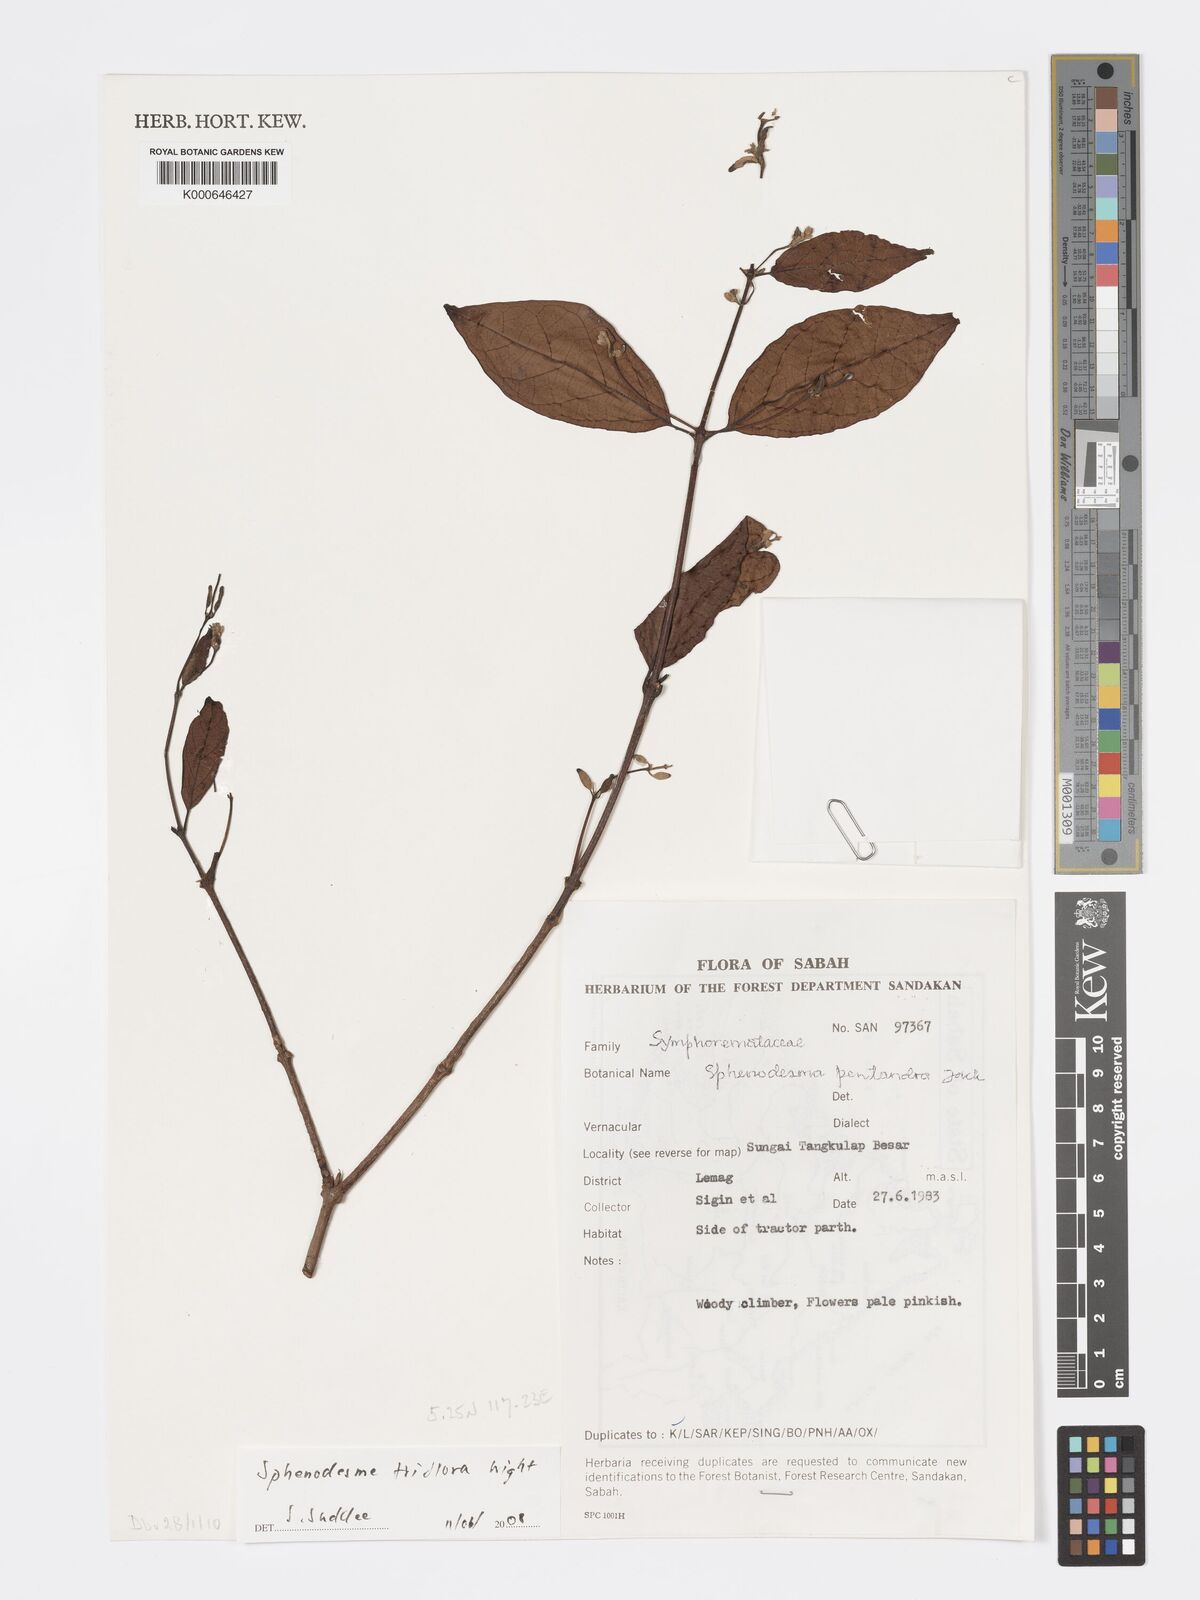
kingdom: Plantae
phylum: Tracheophyta
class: Magnoliopsida
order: Lamiales
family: Lamiaceae
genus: Sphenodesme
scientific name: Sphenodesme triflora
